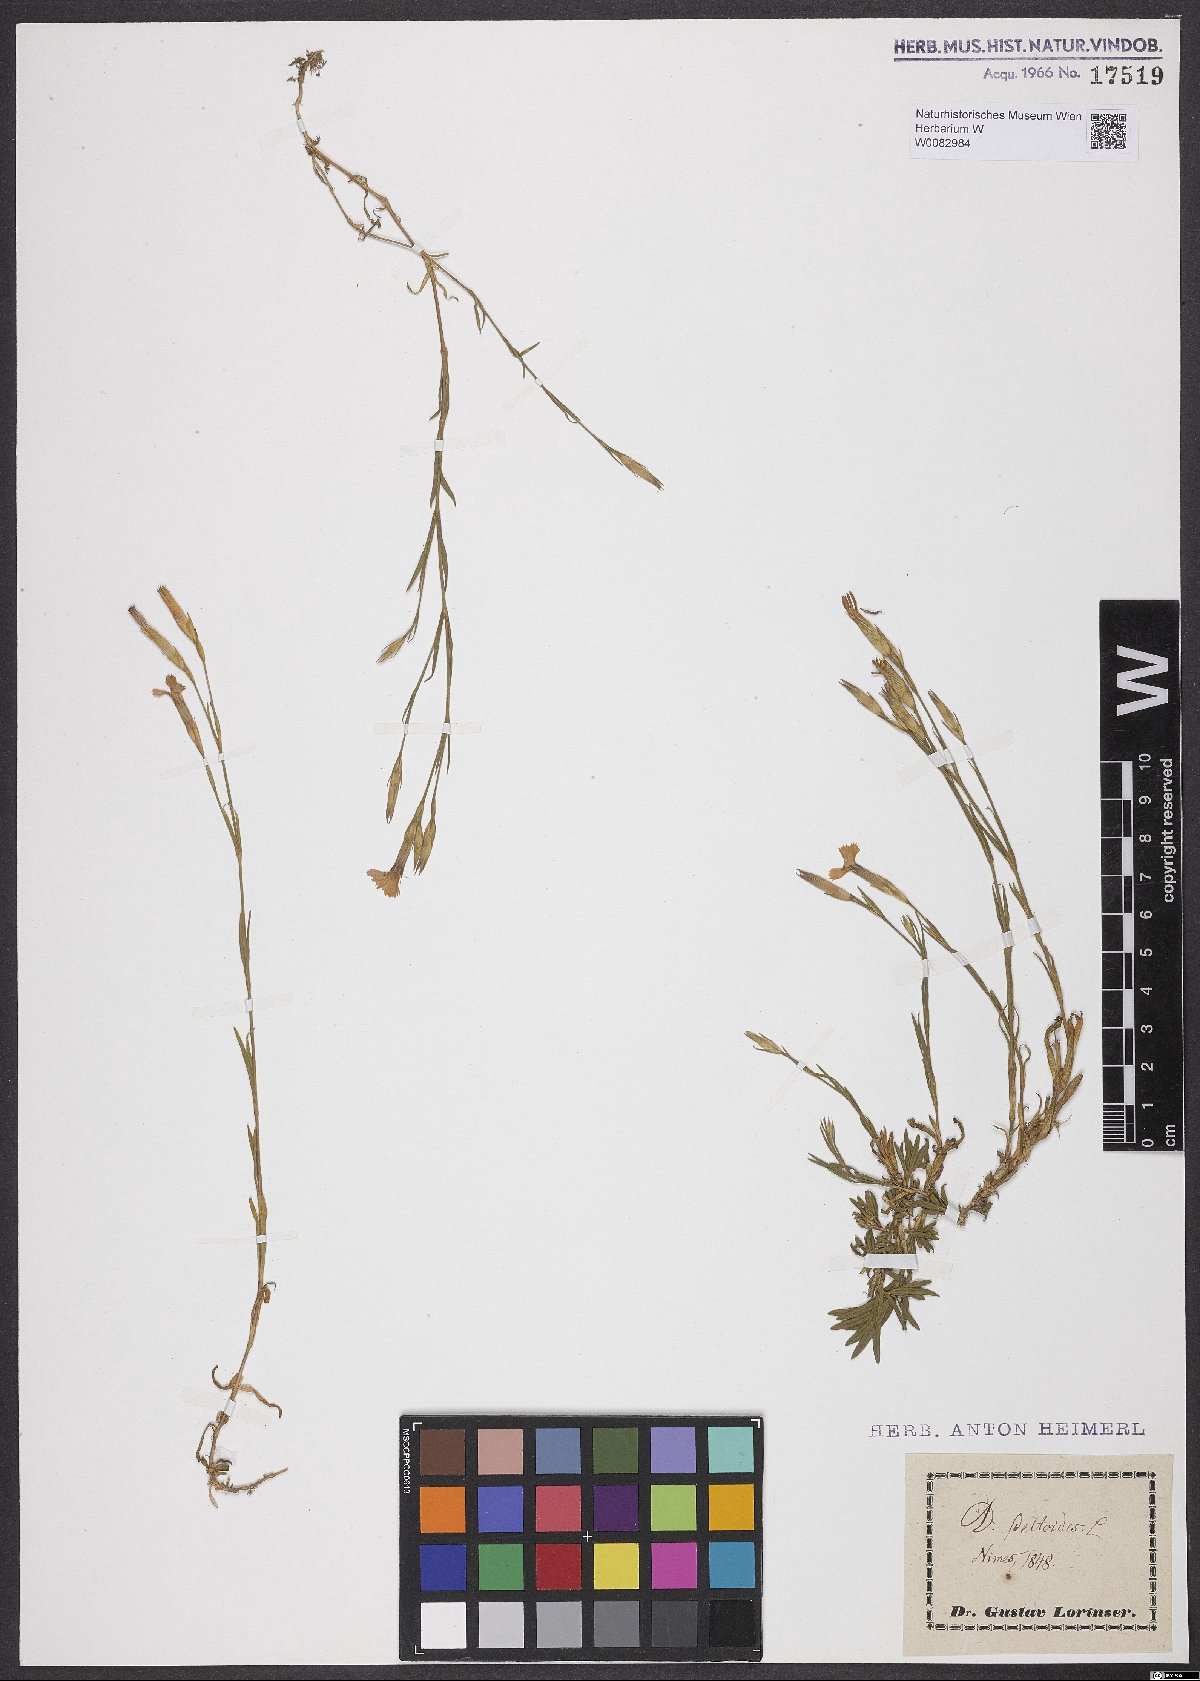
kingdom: Plantae
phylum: Tracheophyta
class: Magnoliopsida
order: Caryophyllales
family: Caryophyllaceae
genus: Dianthus
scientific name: Dianthus deltoides
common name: Maiden pink
